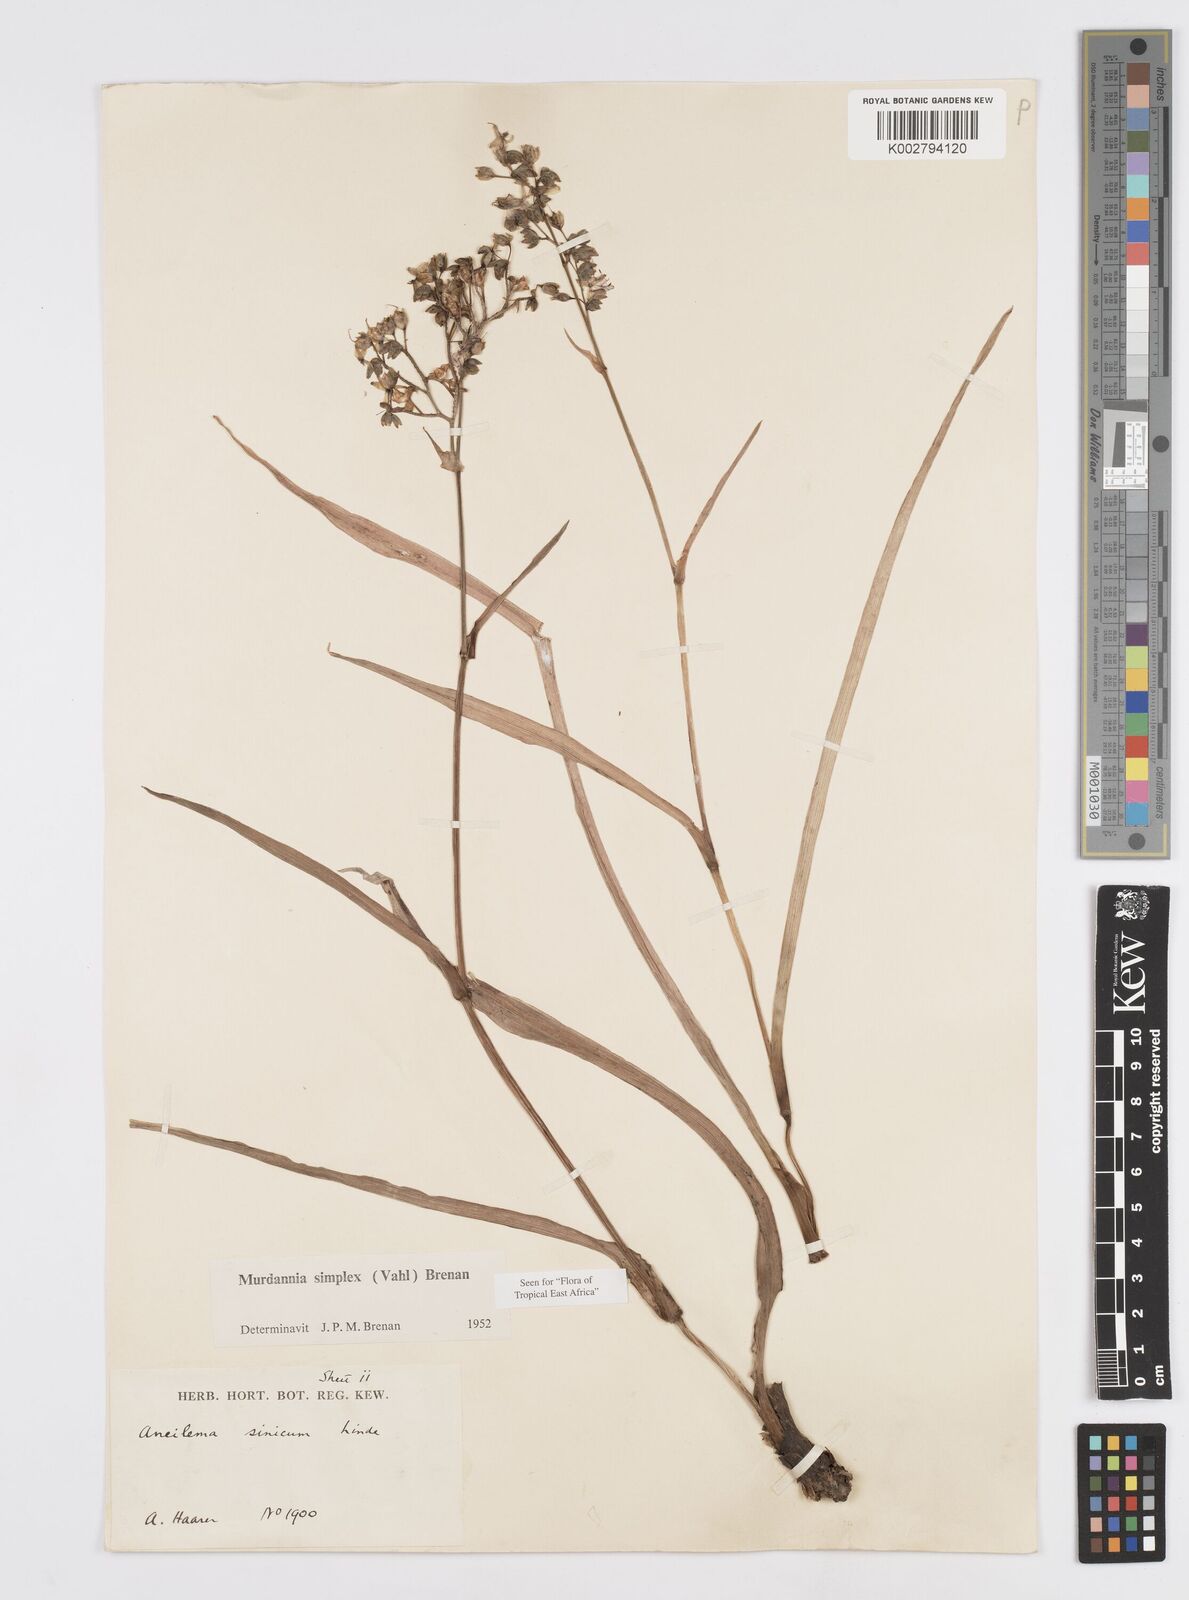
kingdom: Plantae
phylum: Tracheophyta
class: Liliopsida
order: Commelinales
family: Commelinaceae
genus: Murdannia
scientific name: Murdannia simplex
